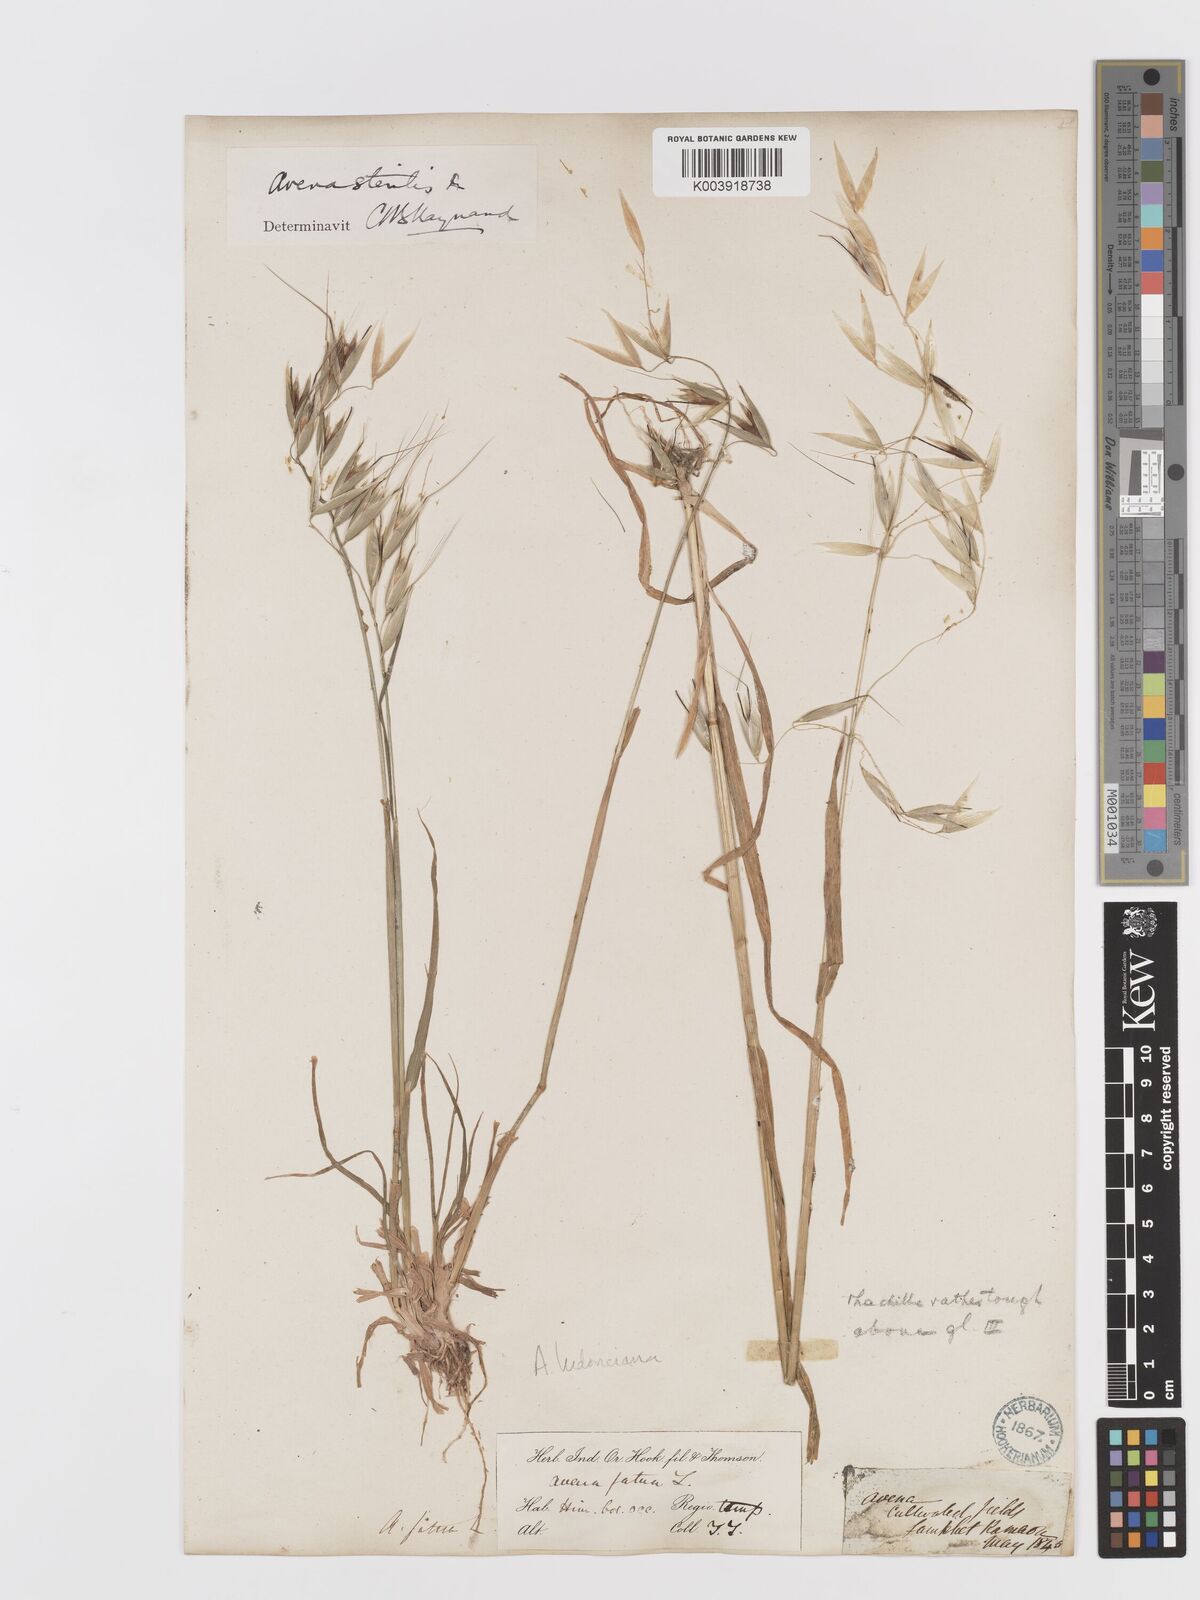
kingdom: Plantae
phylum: Tracheophyta
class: Liliopsida
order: Poales
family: Poaceae
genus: Avena
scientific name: Avena sterilis
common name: Animated oat
